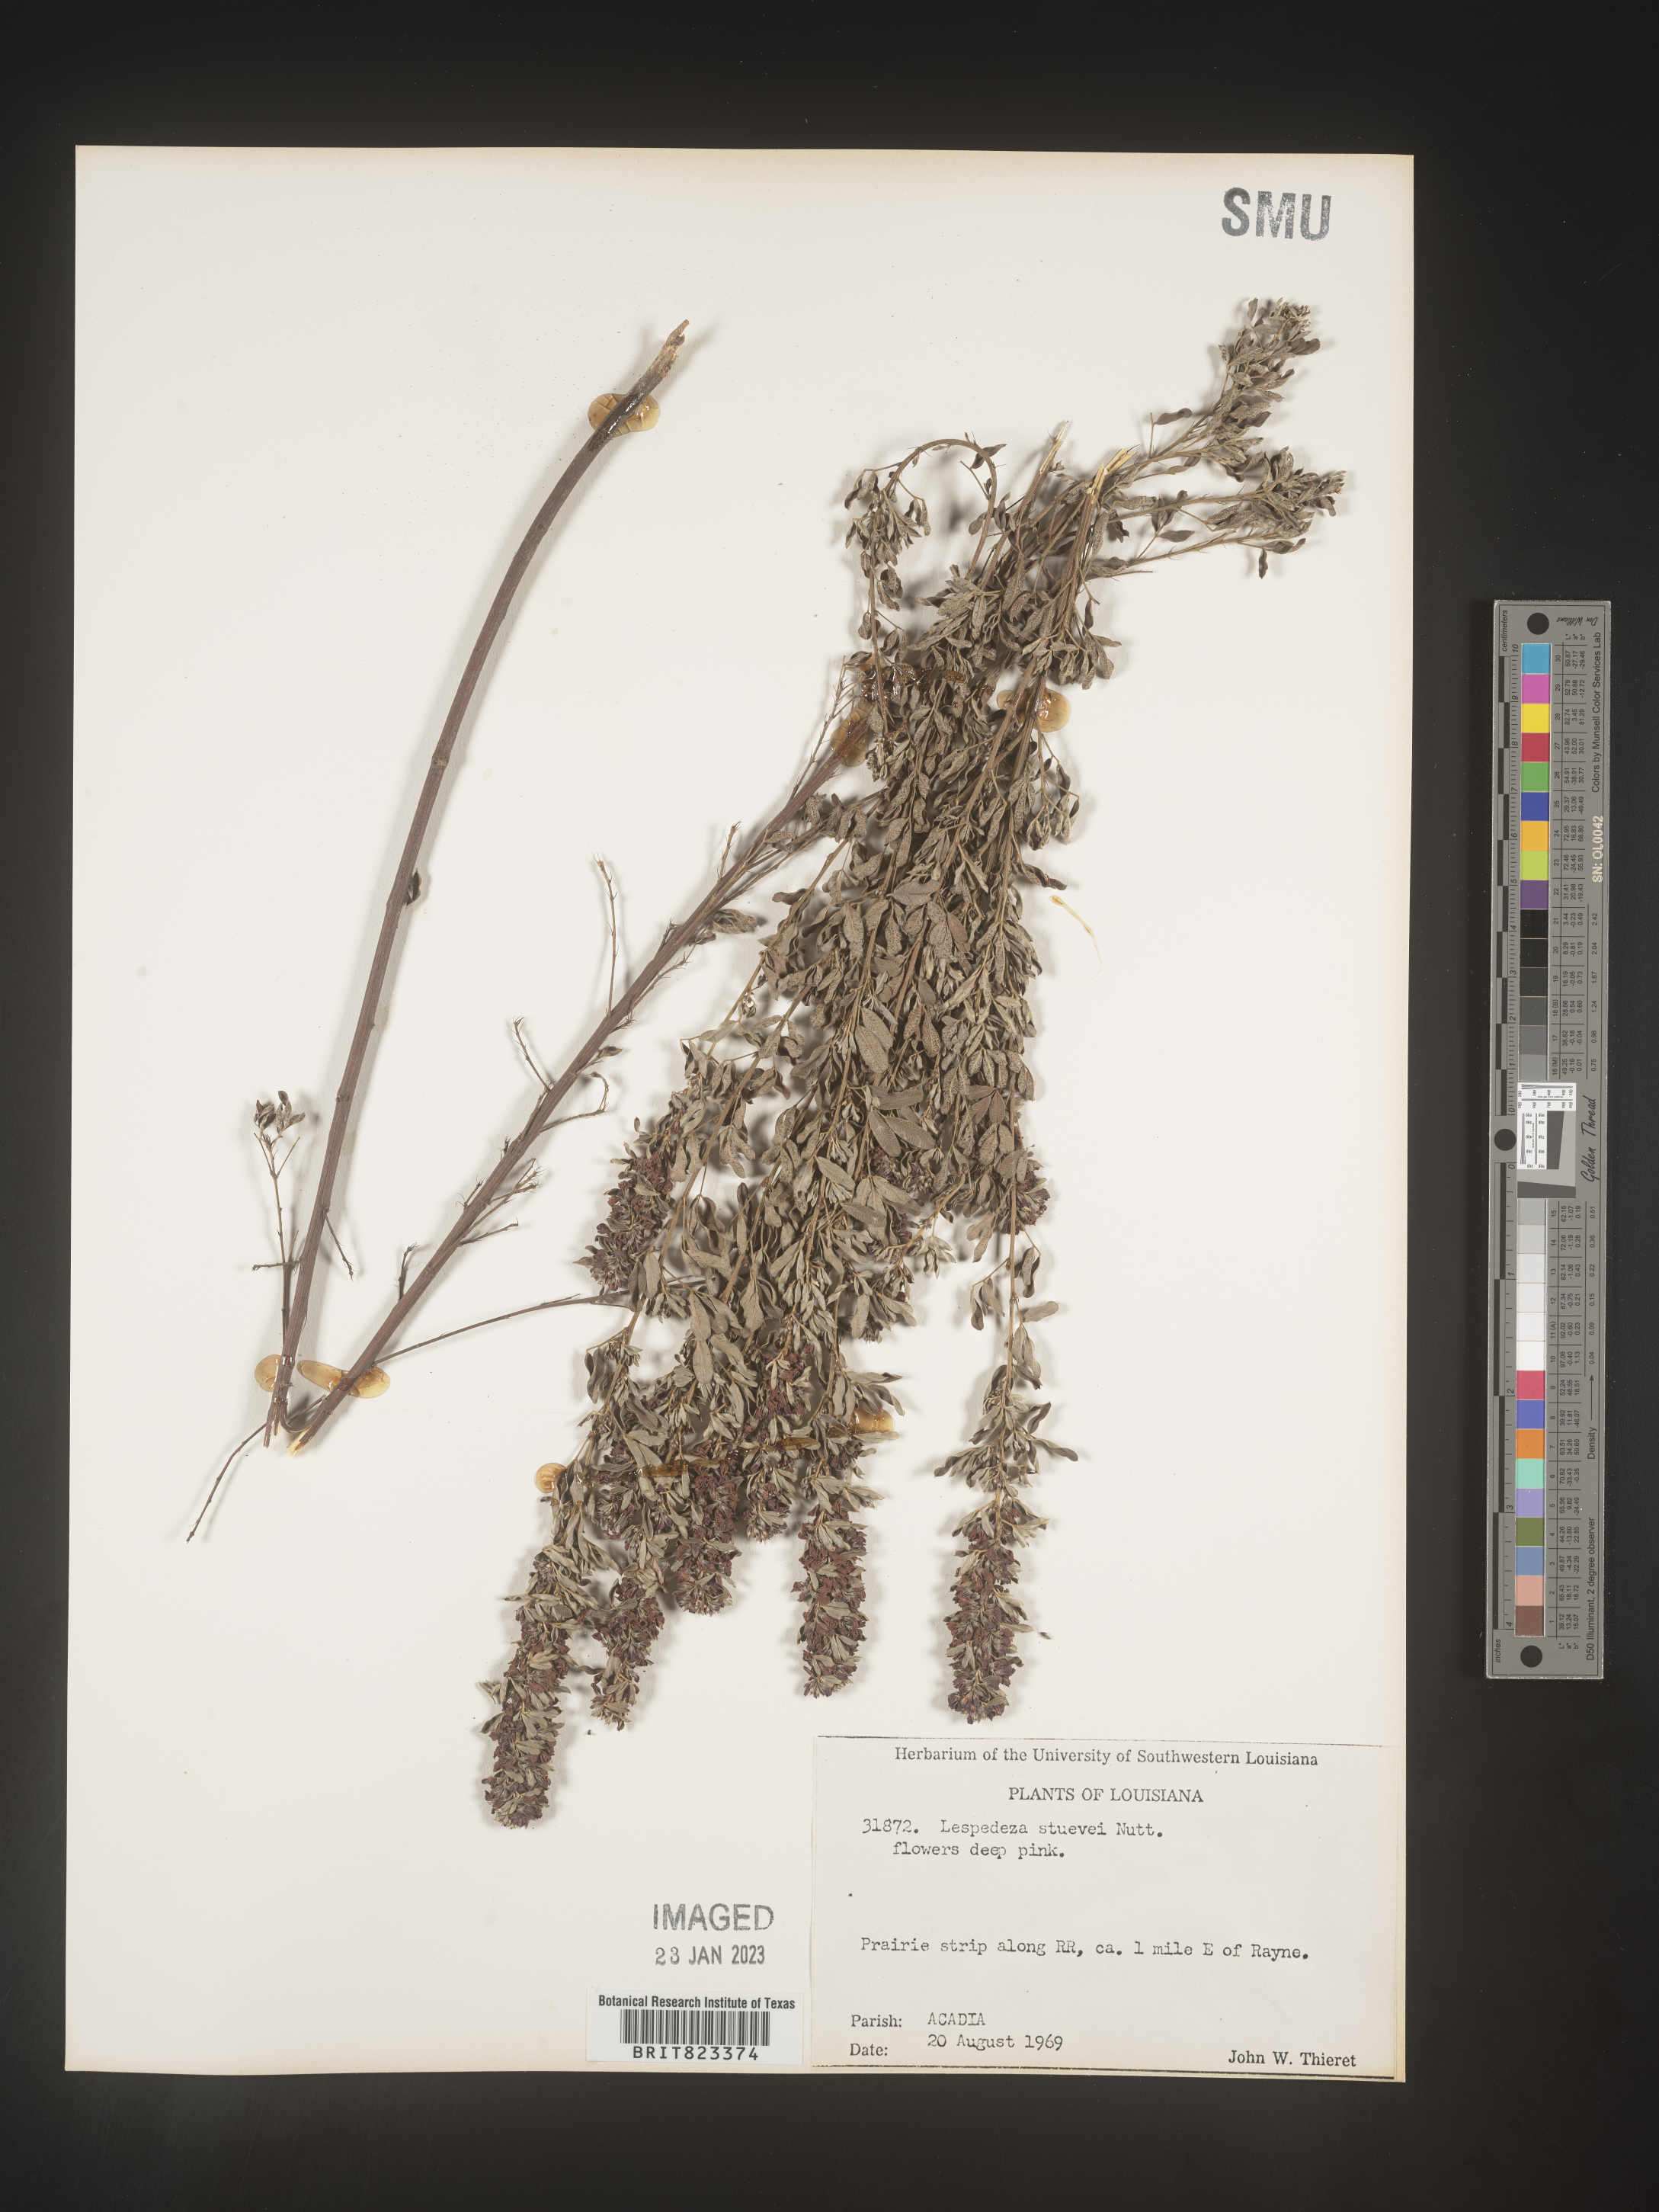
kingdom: Plantae
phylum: Tracheophyta
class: Magnoliopsida
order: Fabales
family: Fabaceae
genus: Lespedeza
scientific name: Lespedeza stuevei
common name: Tall bush-clover
